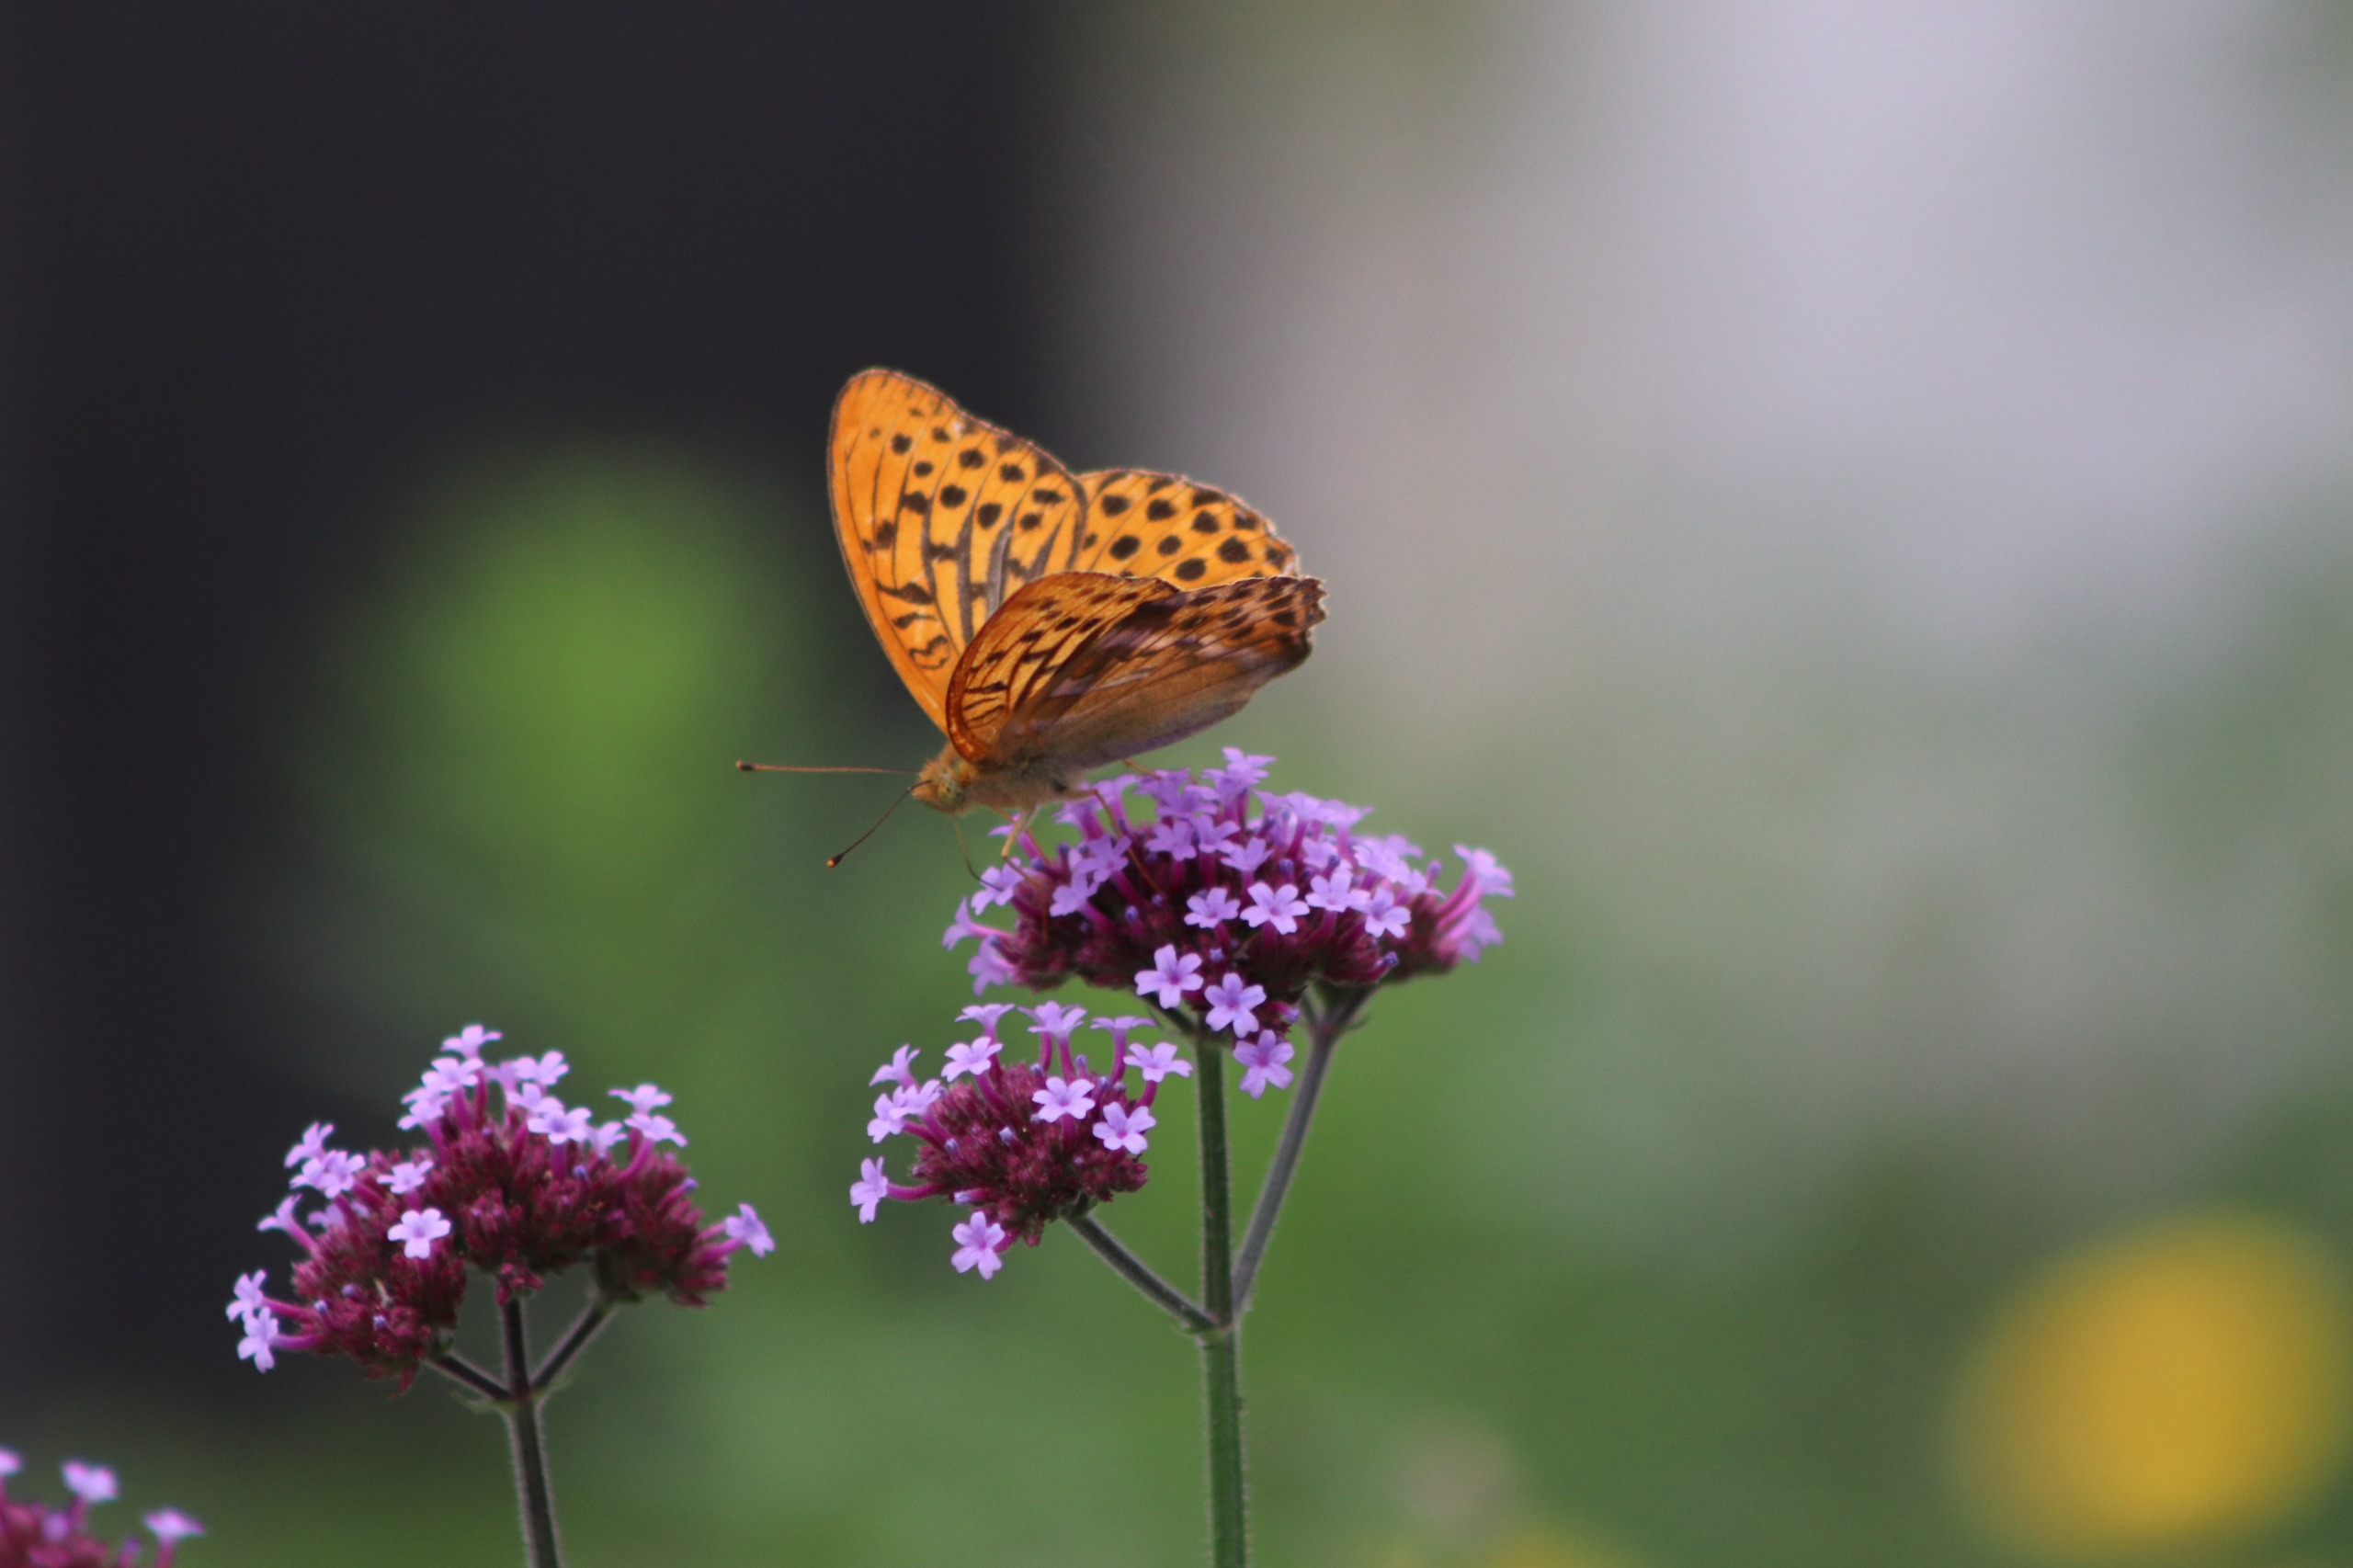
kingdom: Animalia
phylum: Arthropoda
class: Insecta
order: Lepidoptera
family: Nymphalidae
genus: Argynnis
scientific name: Argynnis paphia
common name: Kejserkåbe
